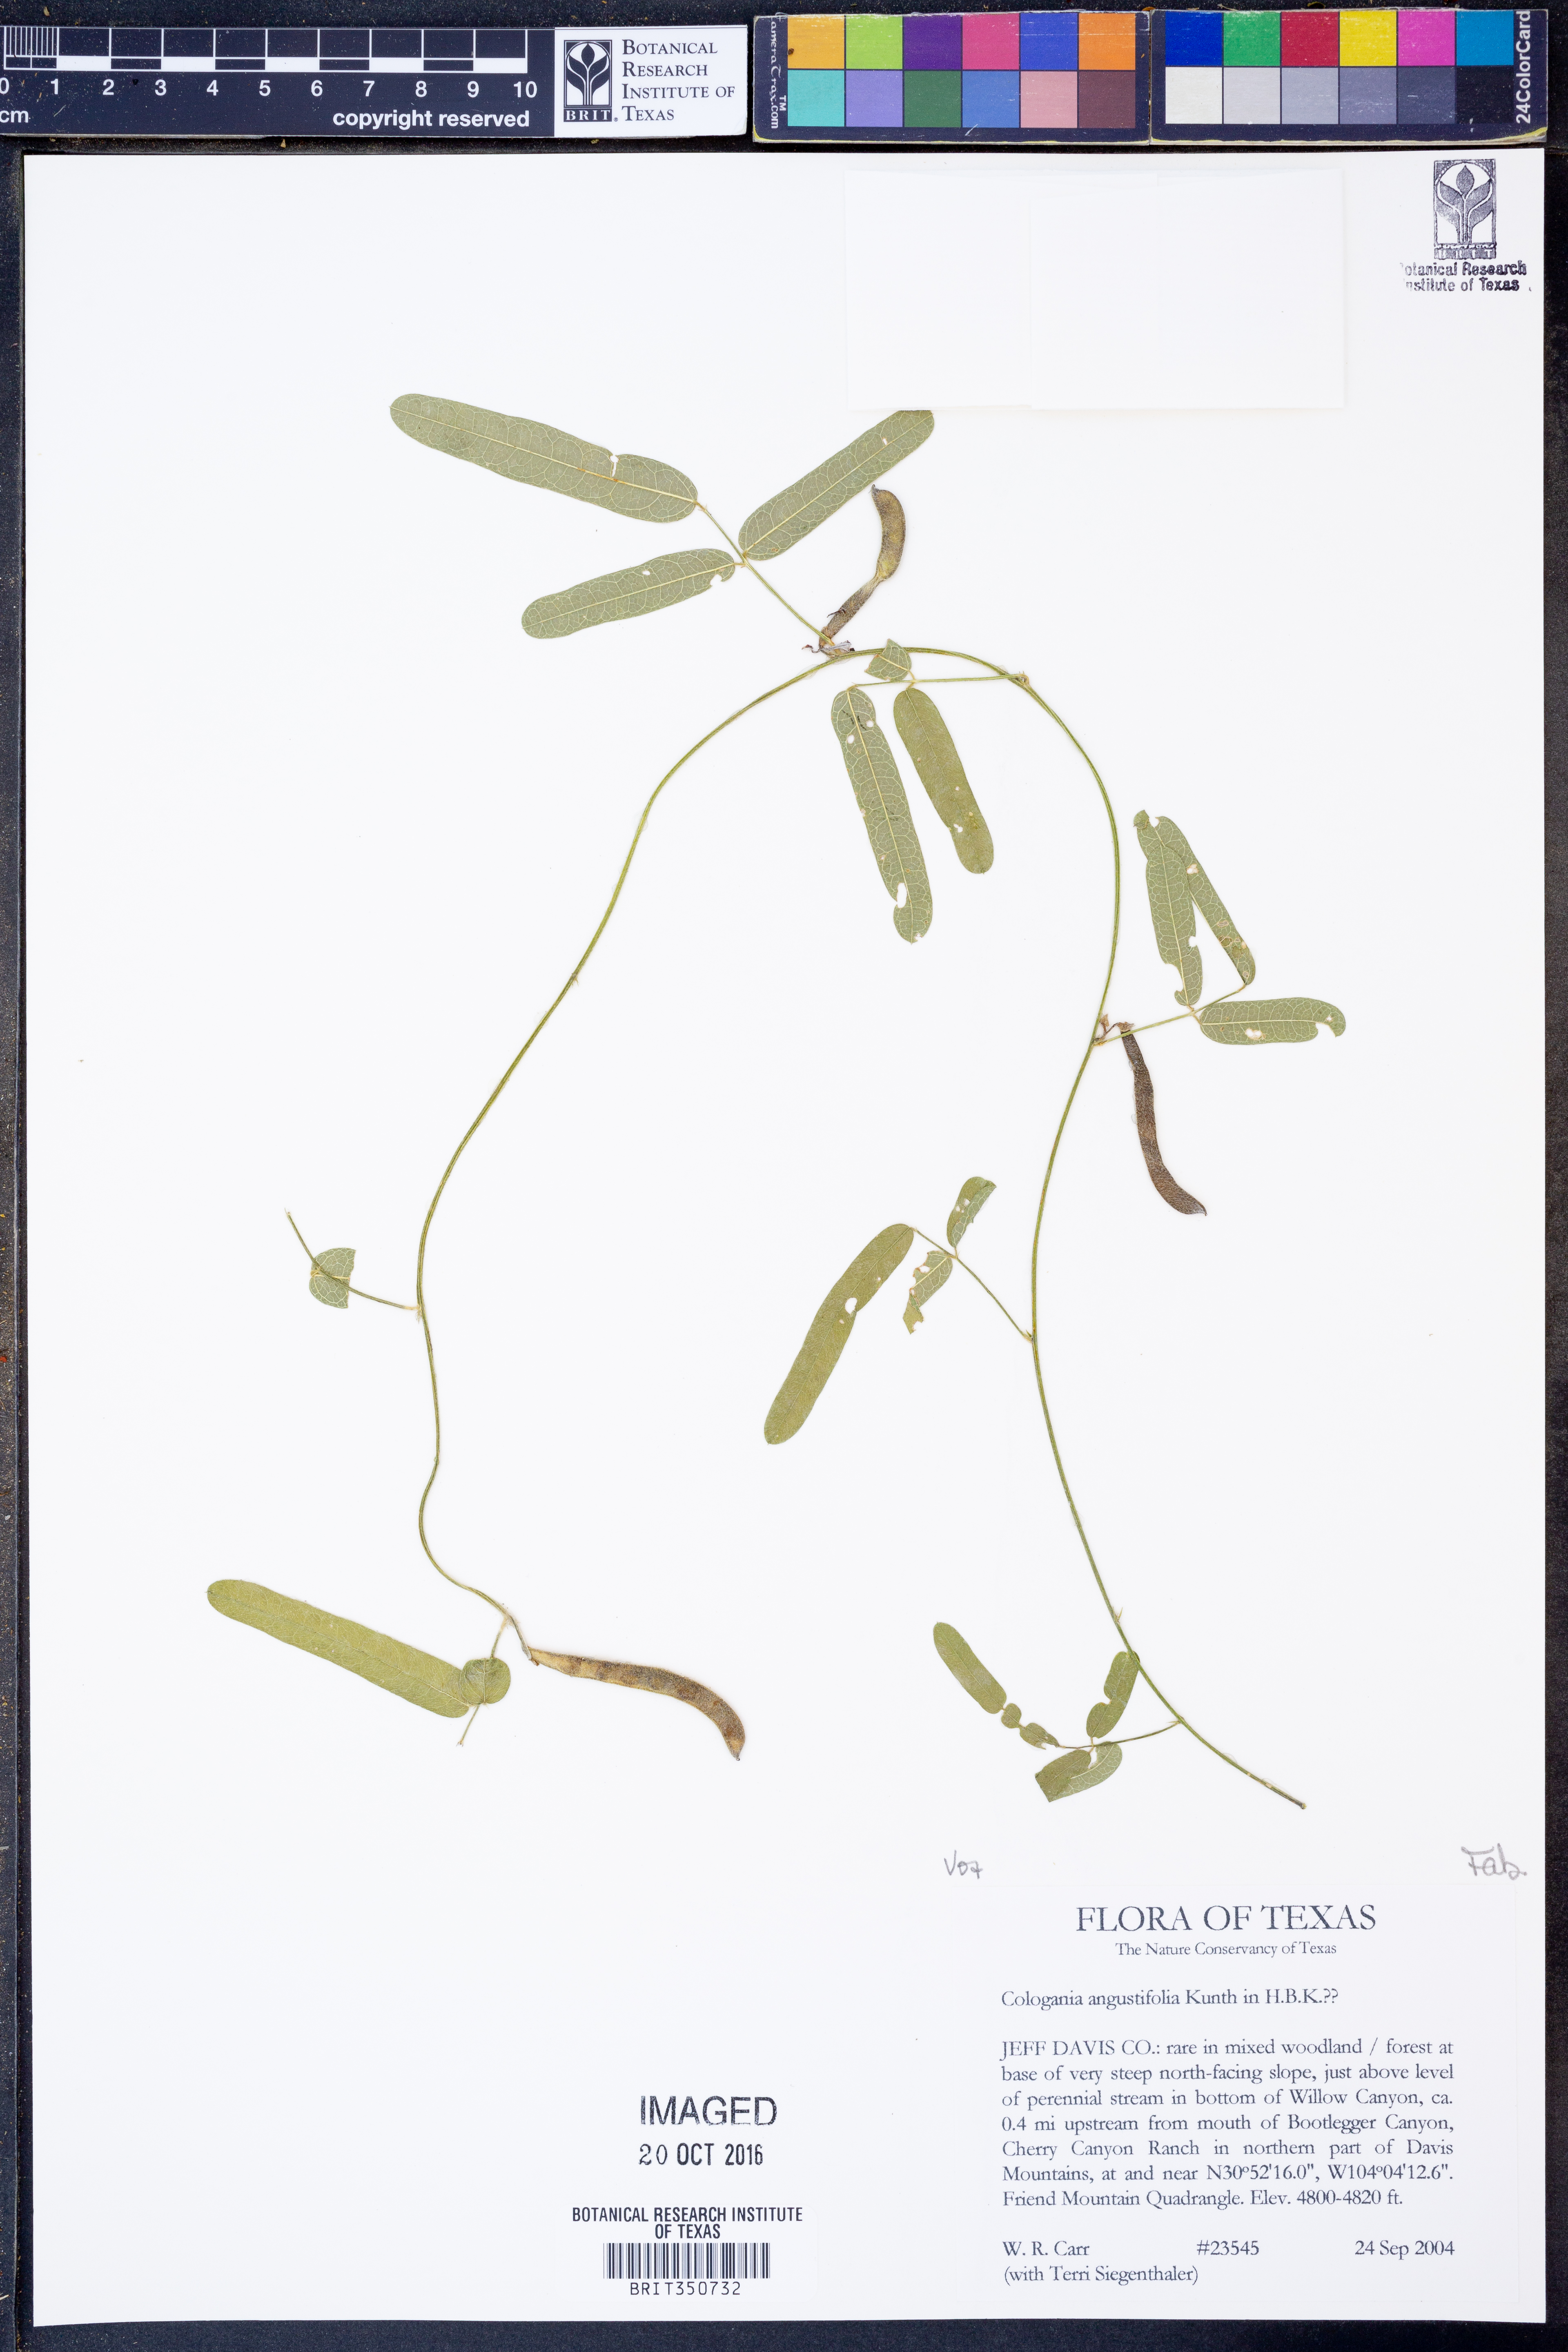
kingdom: Plantae
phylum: Tracheophyta
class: Magnoliopsida
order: Fabales
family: Fabaceae
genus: Cologania
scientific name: Cologania angustifolia
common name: Longleaf cologania
